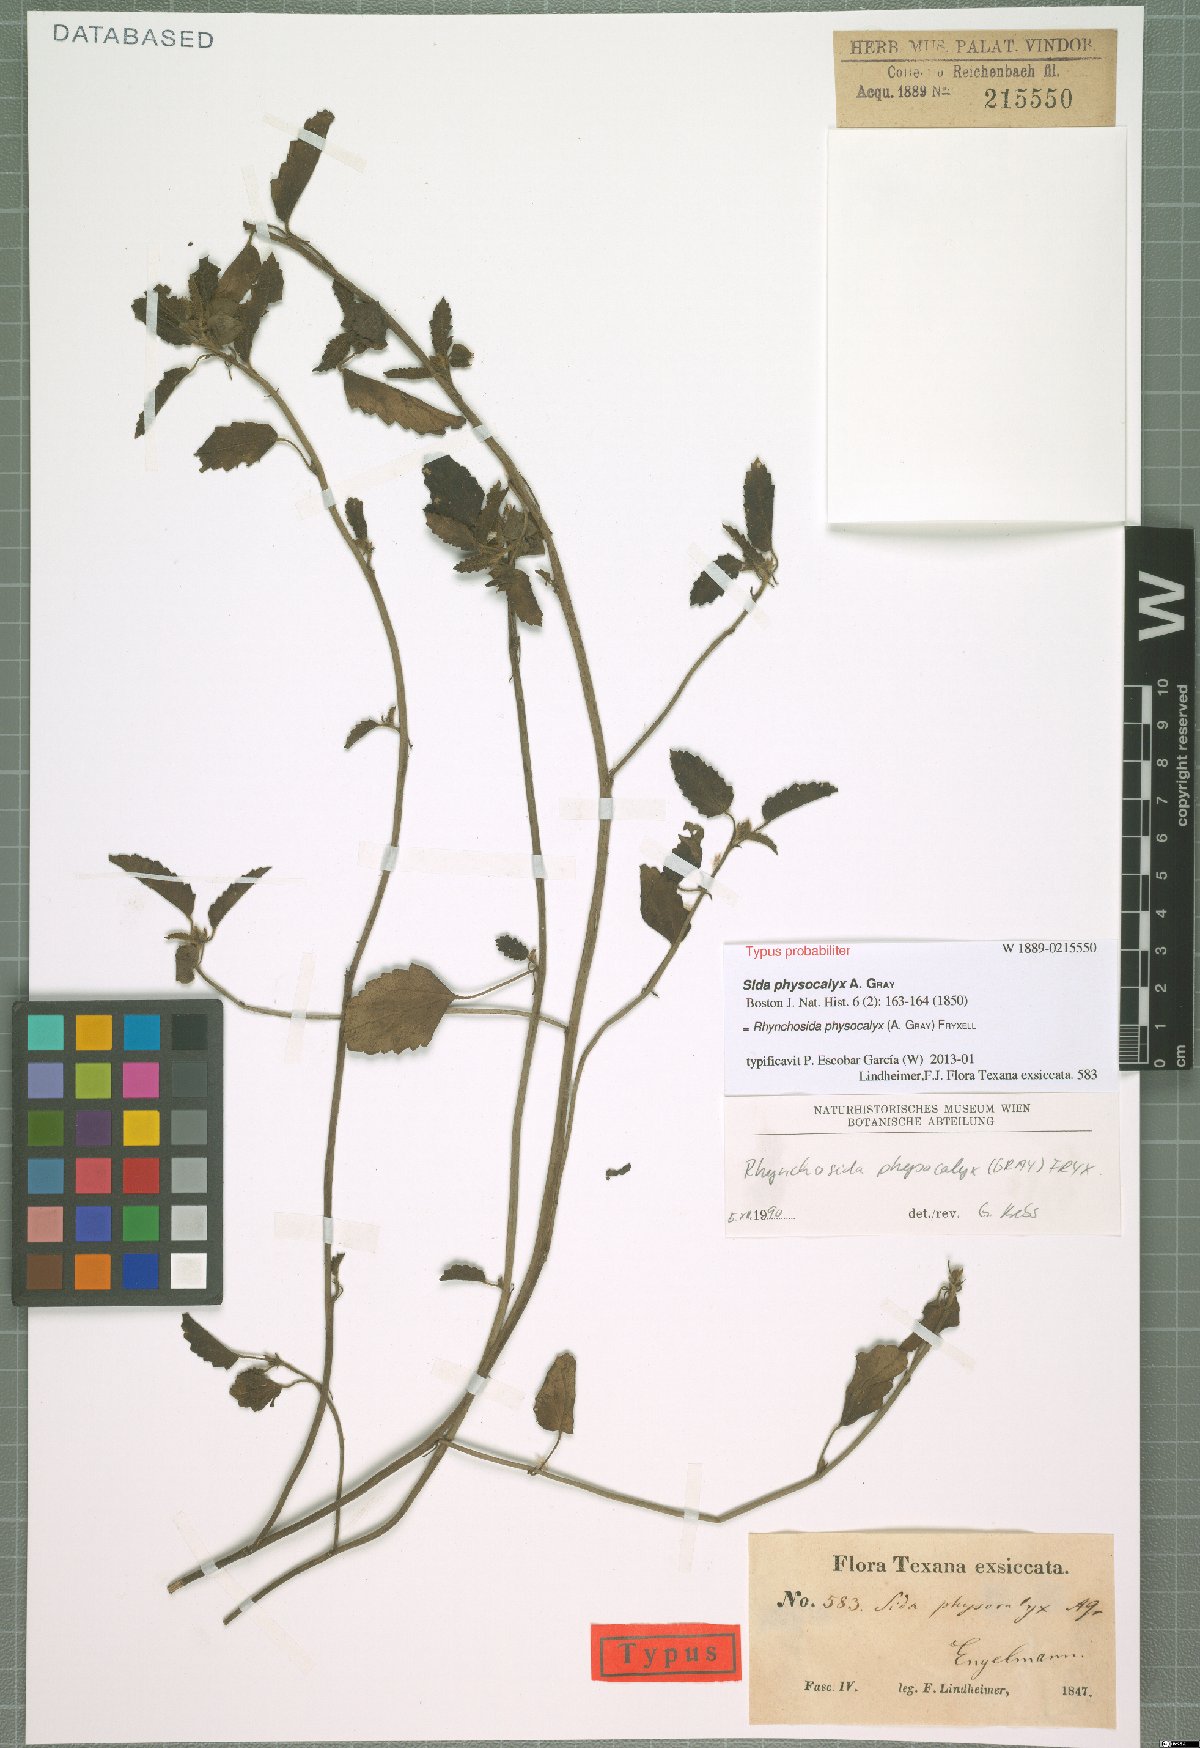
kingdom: Plantae
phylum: Tracheophyta
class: Magnoliopsida
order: Malvales
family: Malvaceae
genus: Rhynchosida
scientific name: Rhynchosida physocalyx
